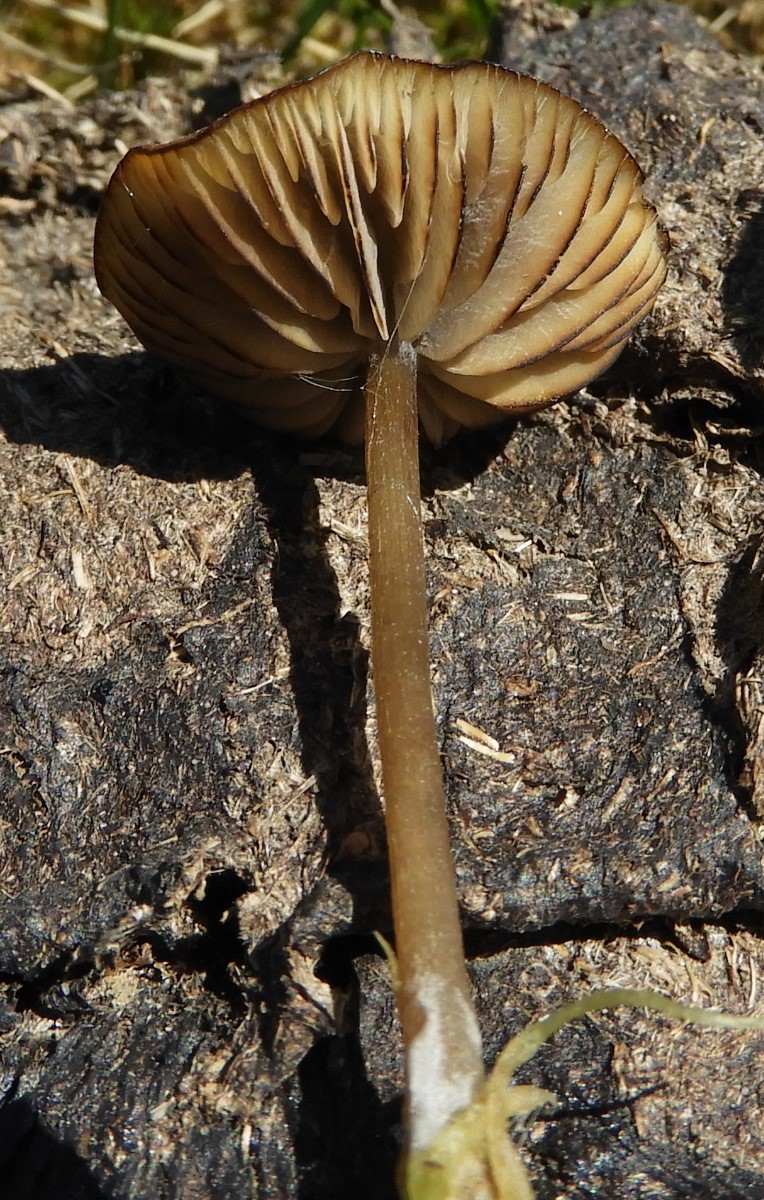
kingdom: Fungi
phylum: Basidiomycota
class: Agaricomycetes
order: Agaricales
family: Lyophyllaceae
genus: Sphagnurus
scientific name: Sphagnurus paluster
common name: tørvemos-gråblad
